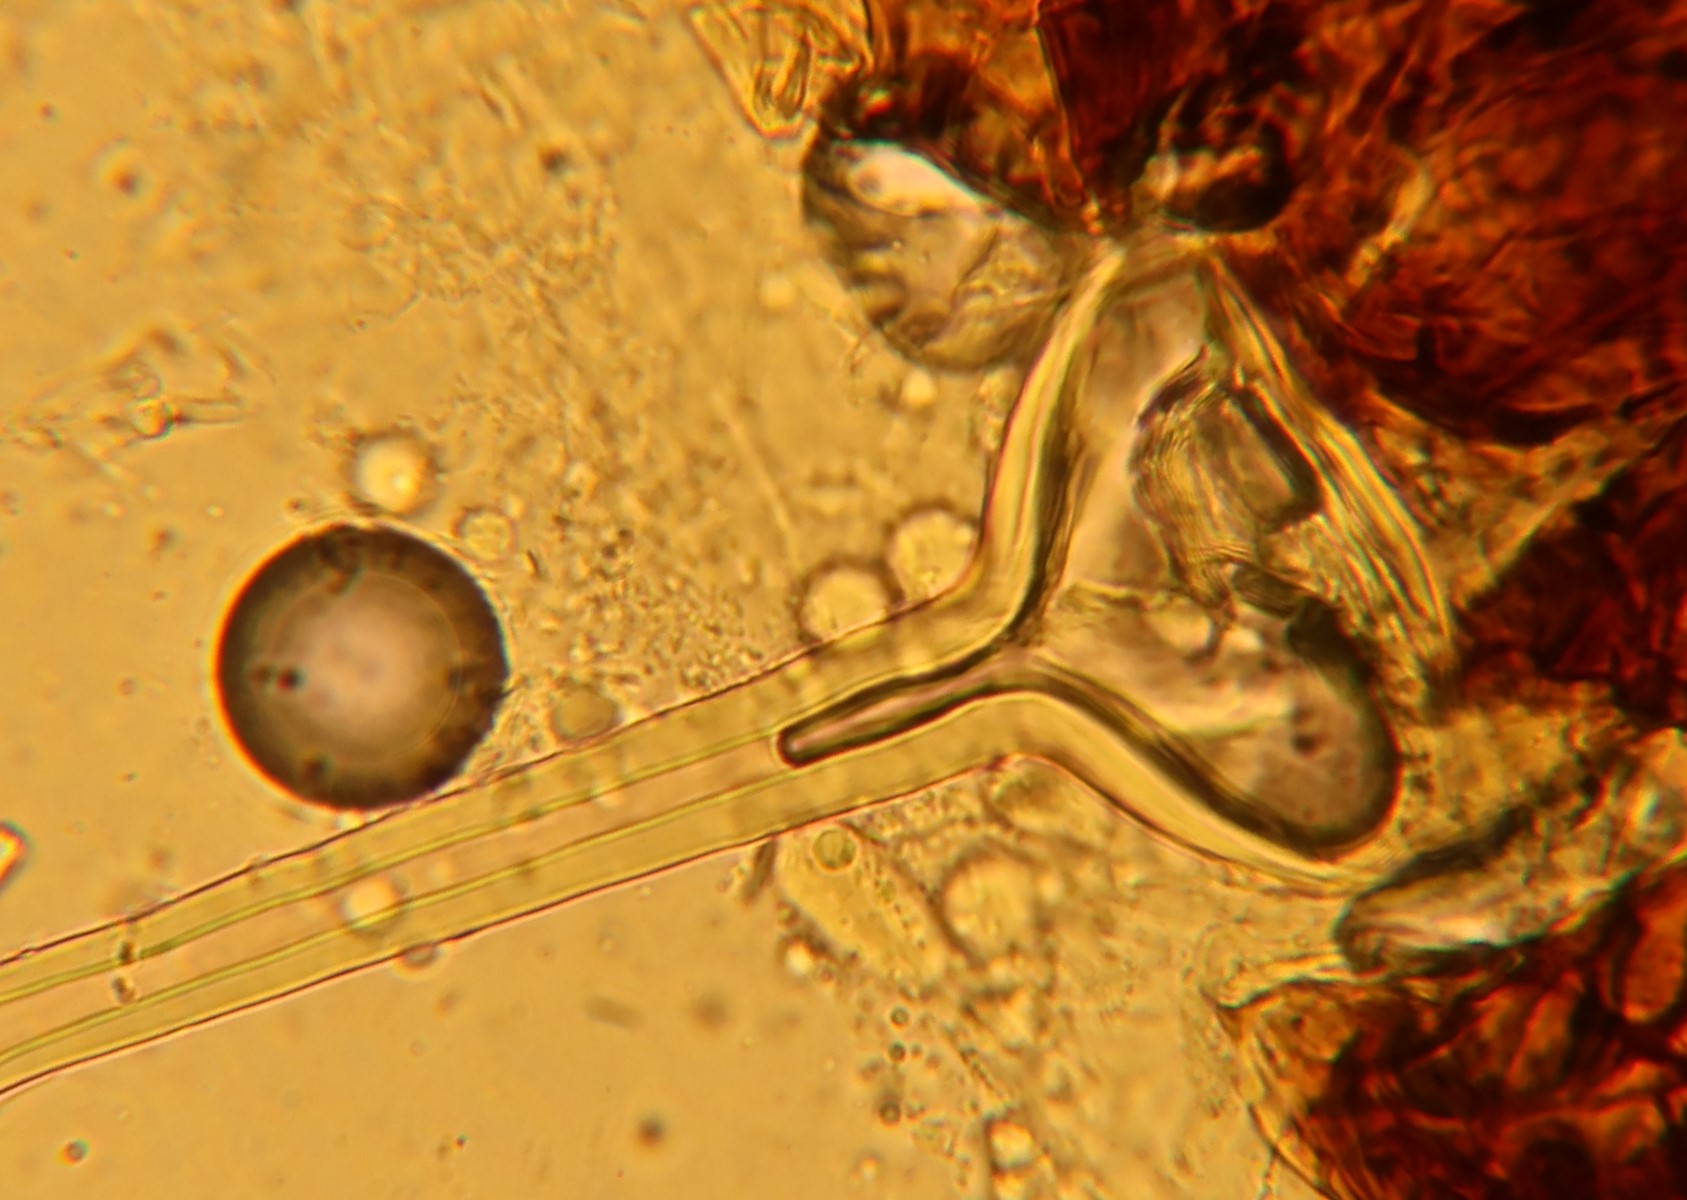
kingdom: Fungi
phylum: Ascomycota
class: Leotiomycetes
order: Helotiales
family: Erysiphaceae
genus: Phyllactinia
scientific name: Phyllactinia guttata
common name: hassel-meldug
